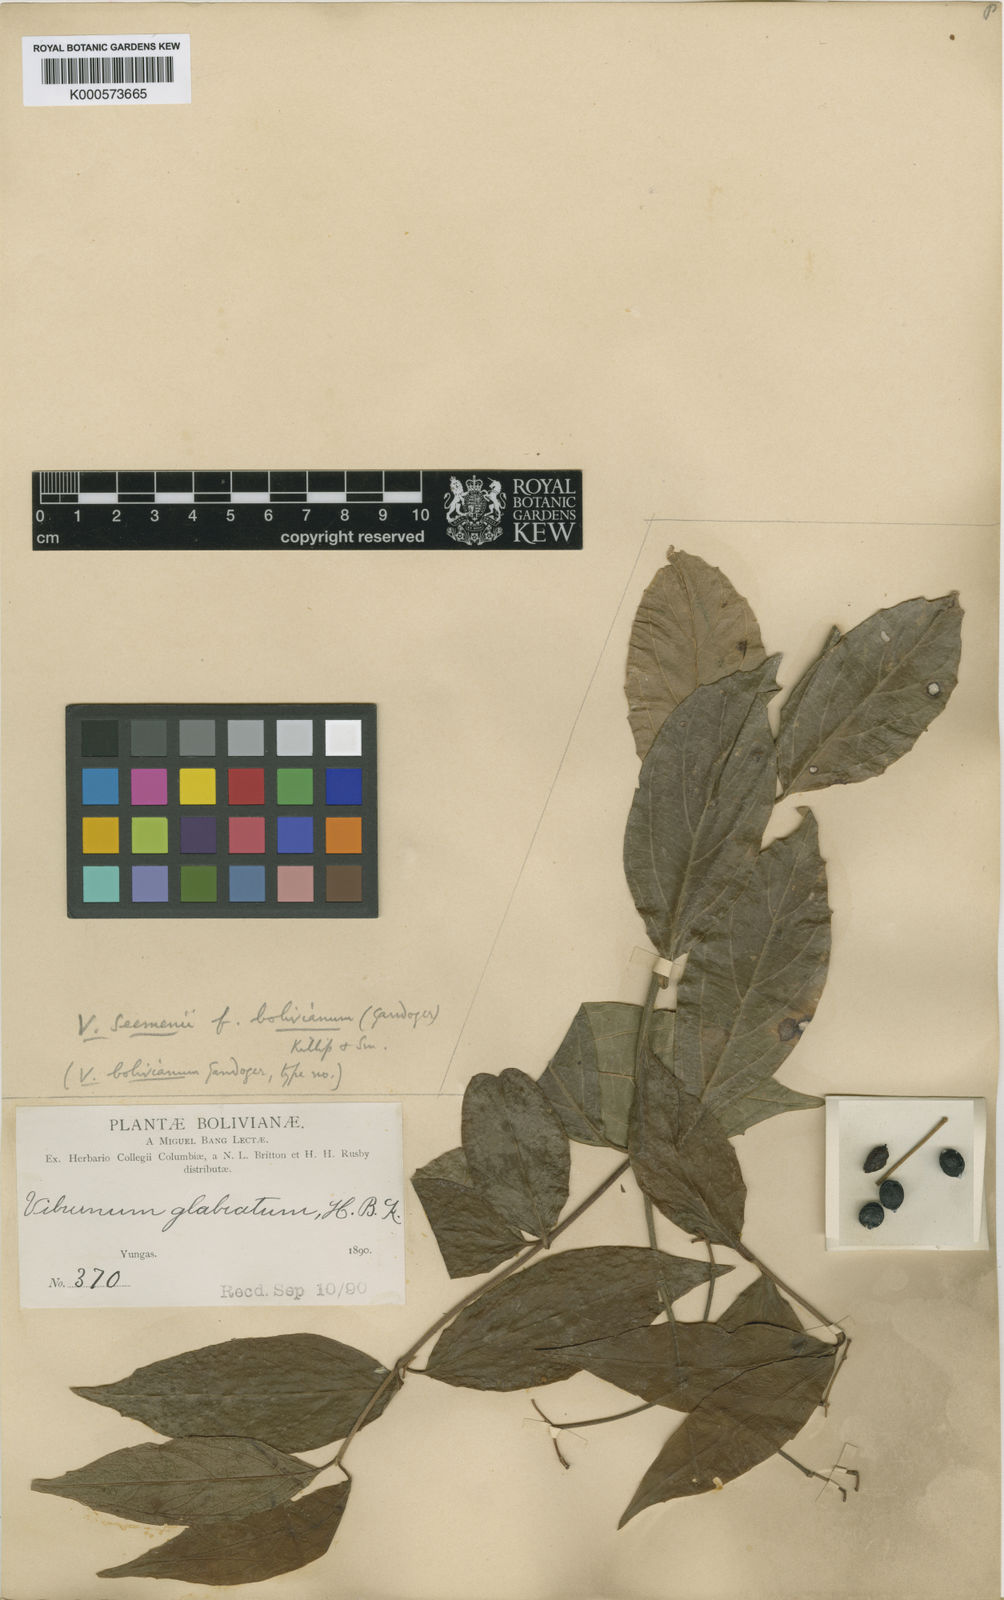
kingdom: Plantae
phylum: Tracheophyta
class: Magnoliopsida
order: Dipsacales
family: Viburnaceae
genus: Viburnum
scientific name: Viburnum seemenii
